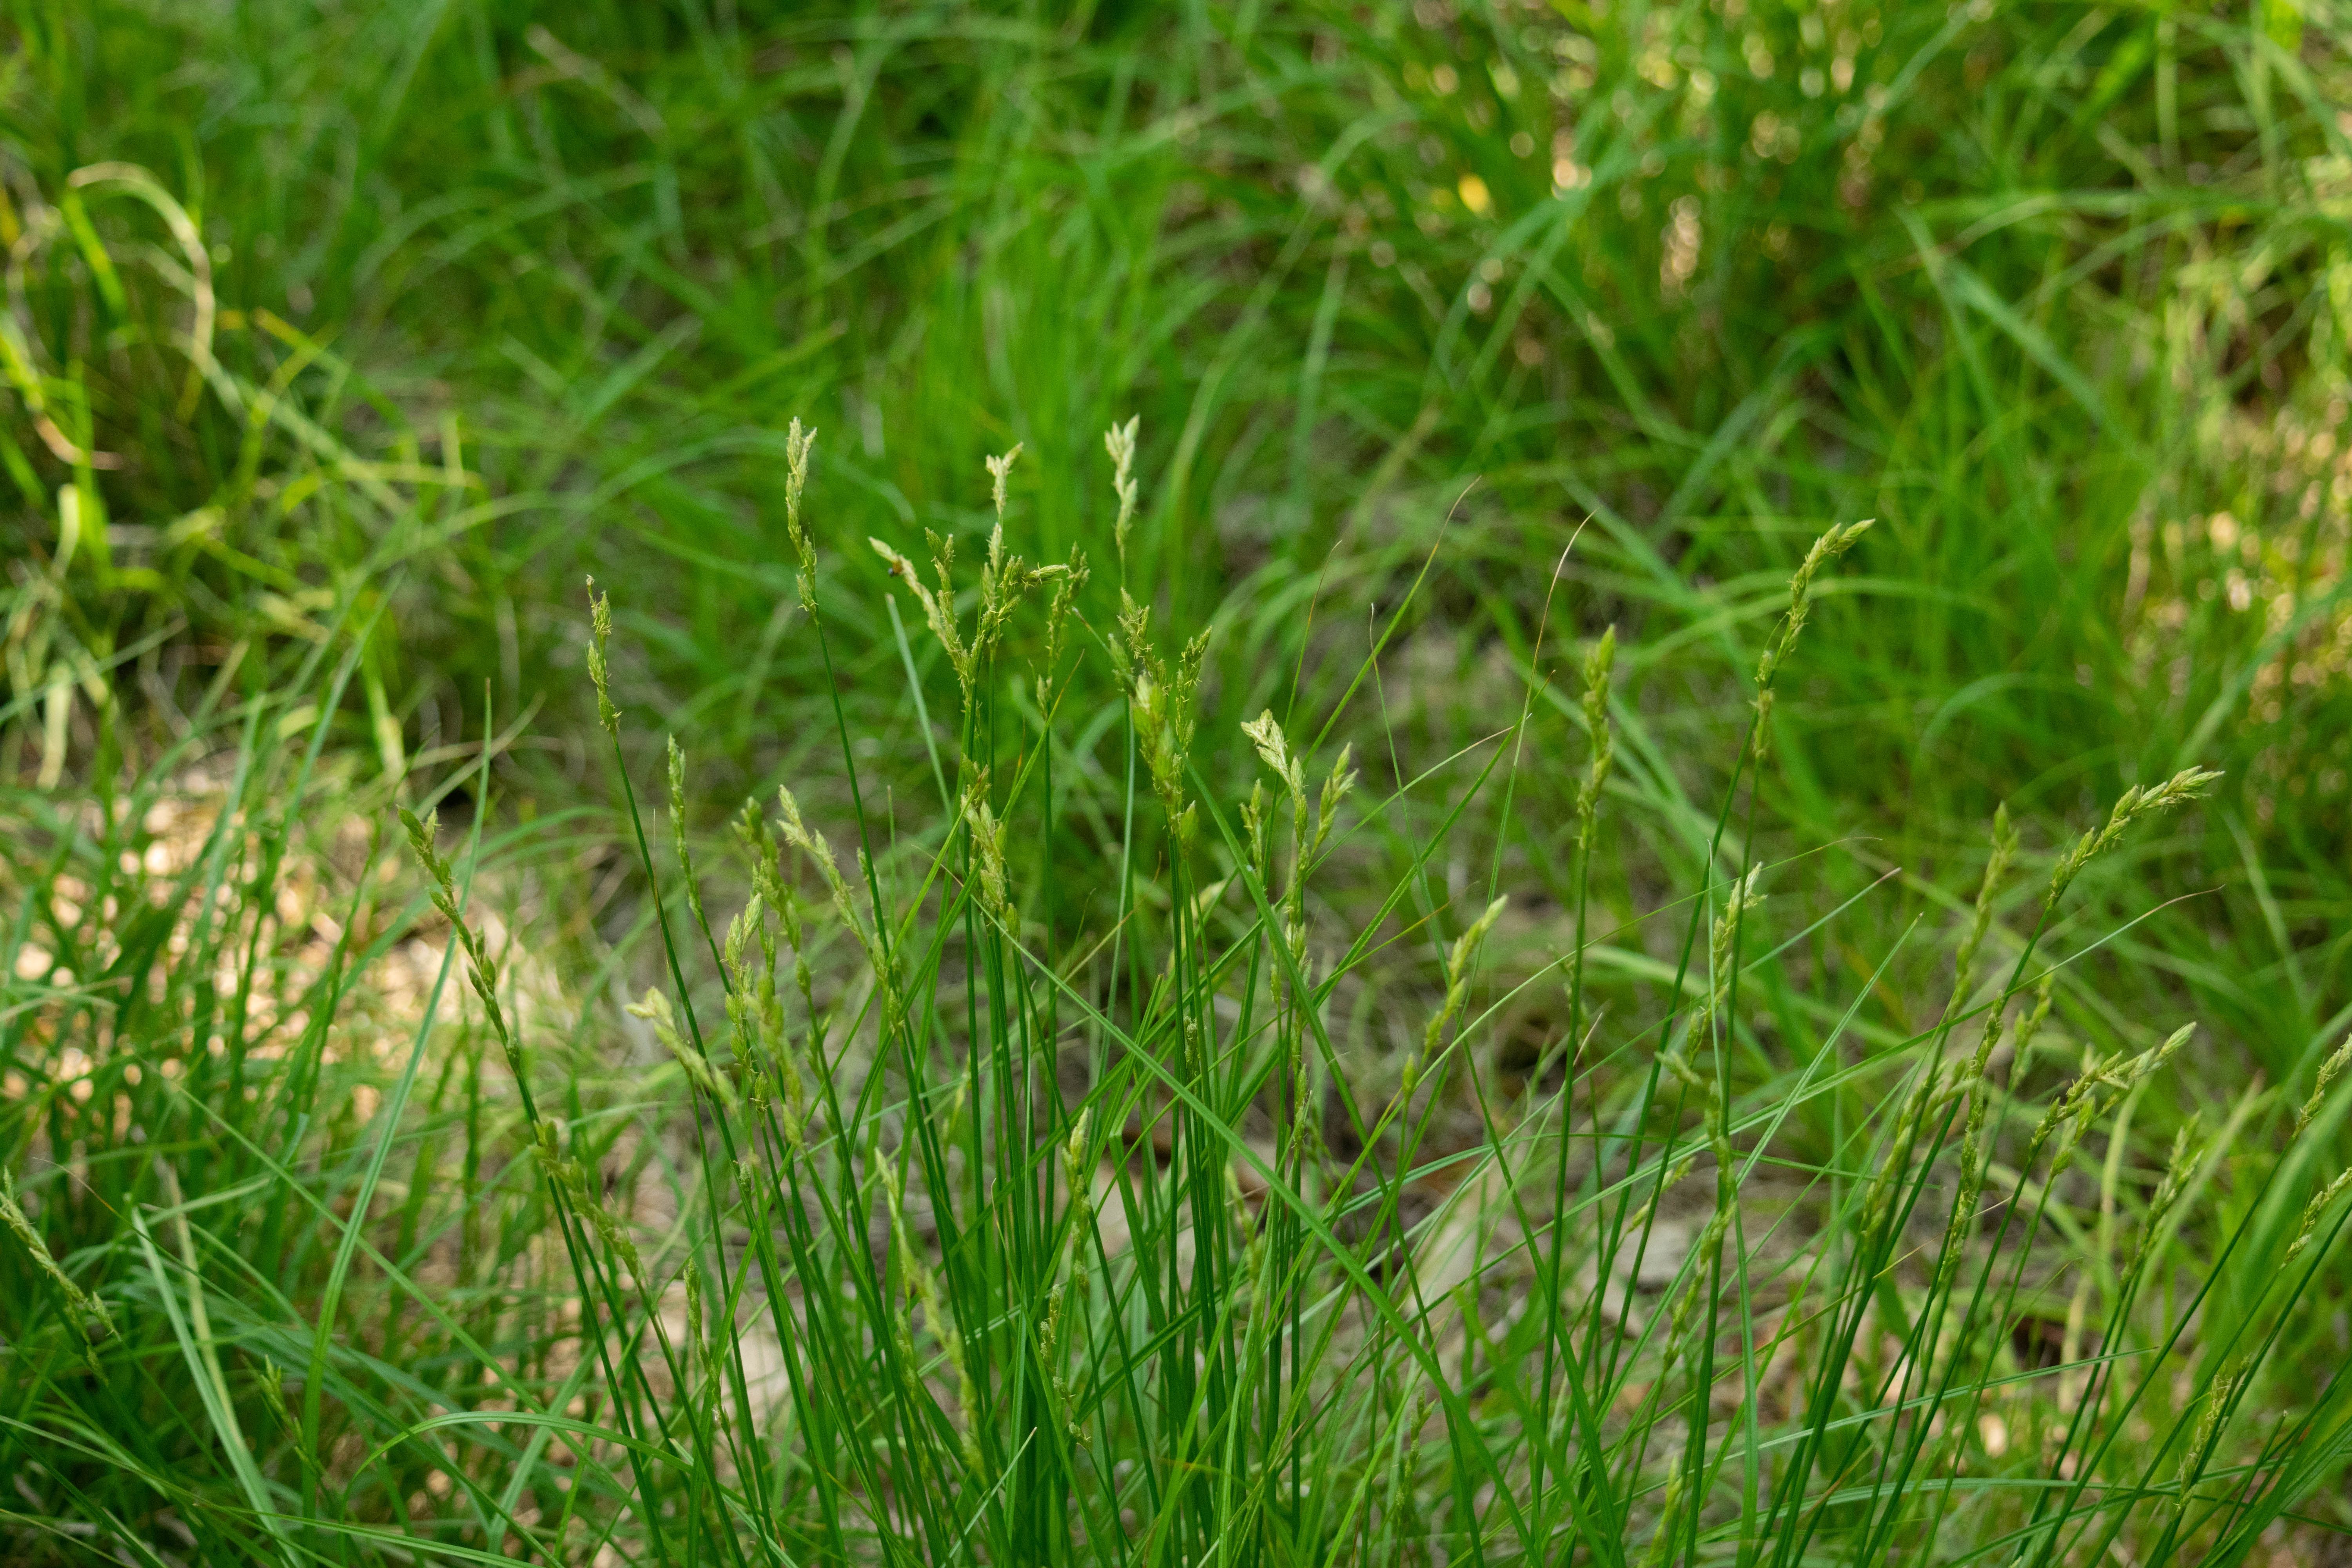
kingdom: Plantae
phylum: Tracheophyta
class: Liliopsida
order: Poales
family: Cyperaceae
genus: Carex
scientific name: Carex tribuloides
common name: Blunt broom sedge
